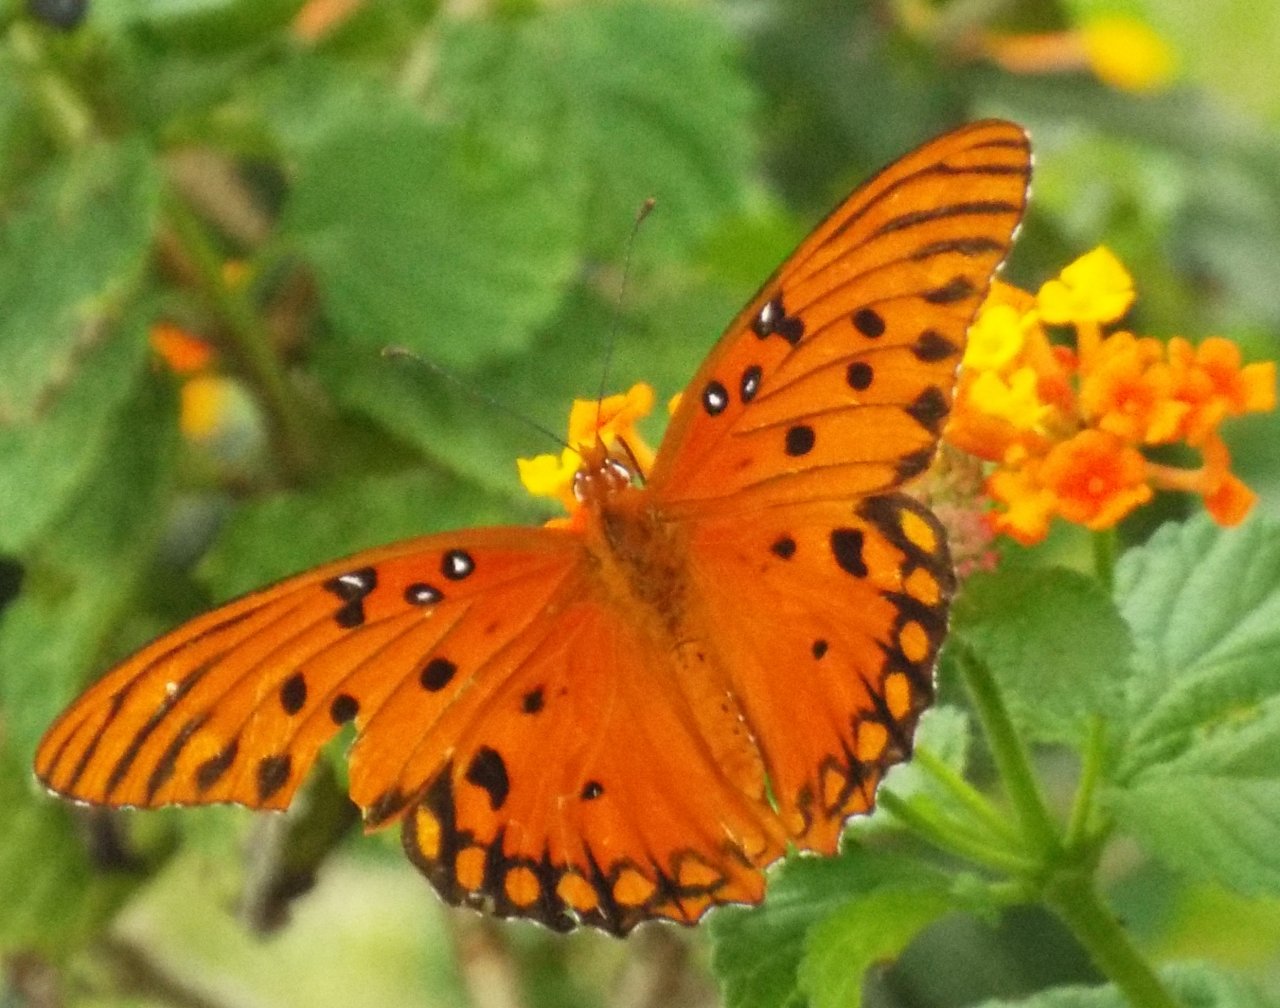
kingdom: Animalia
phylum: Arthropoda
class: Insecta
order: Lepidoptera
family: Nymphalidae
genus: Dione
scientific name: Dione vanillae
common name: Gulf Fritillary
